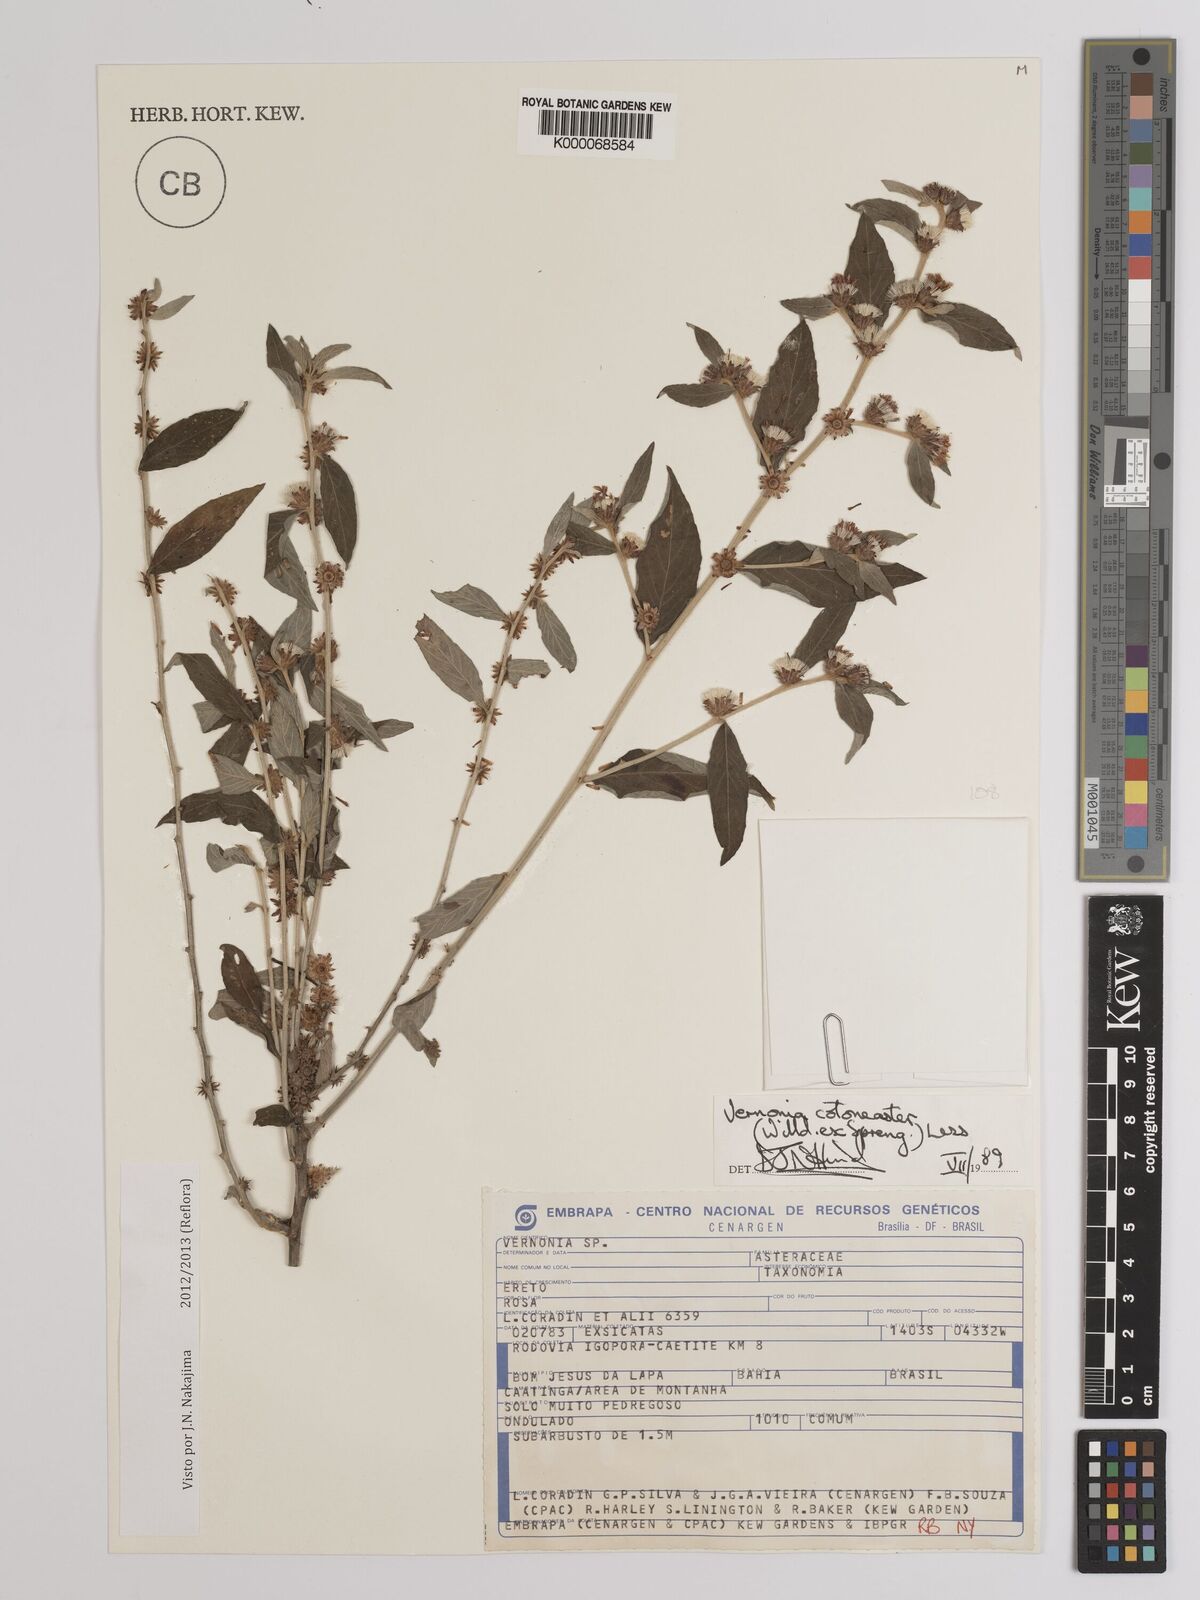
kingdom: Plantae
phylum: Tracheophyta
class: Magnoliopsida
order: Asterales
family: Asteraceae
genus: Lepidaploa
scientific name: Lepidaploa cotoneaster
